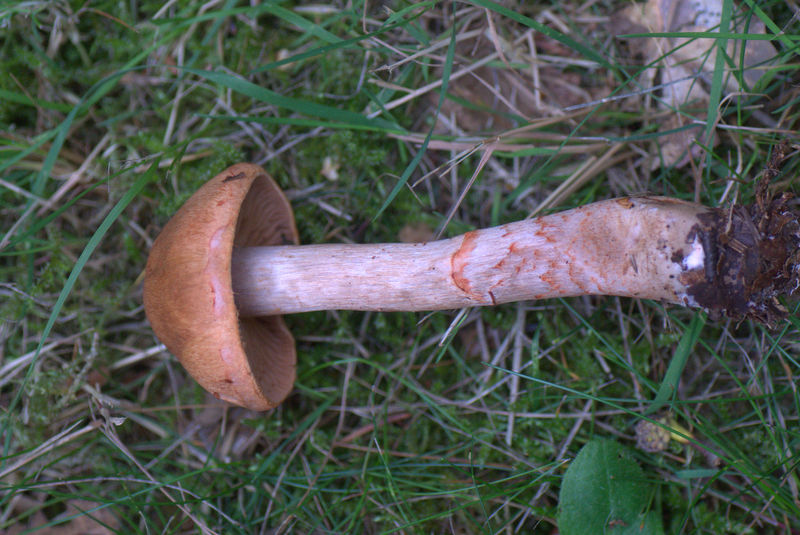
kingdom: Fungi
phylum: Basidiomycota
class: Agaricomycetes
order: Agaricales
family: Cortinariaceae
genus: Cortinarius
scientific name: Cortinarius armillatus
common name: cinnoberbæltet slørhat
